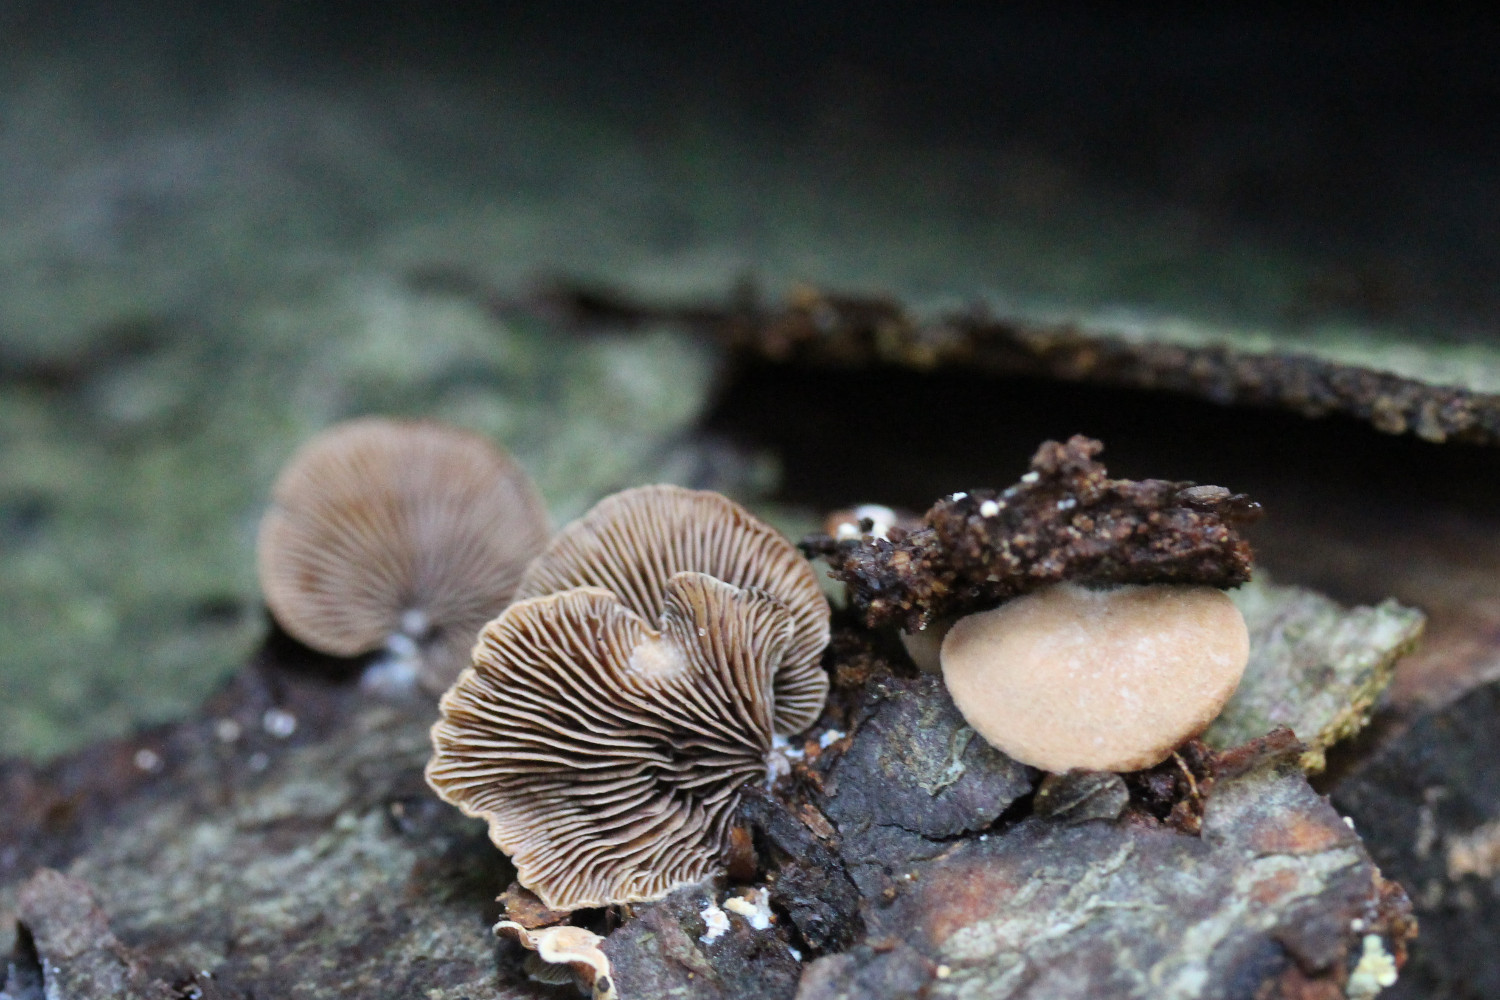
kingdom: Fungi
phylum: Basidiomycota
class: Agaricomycetes
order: Agaricales
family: Strophariaceae
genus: Deconica
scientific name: Deconica horizontalis
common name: ved-stråhat
